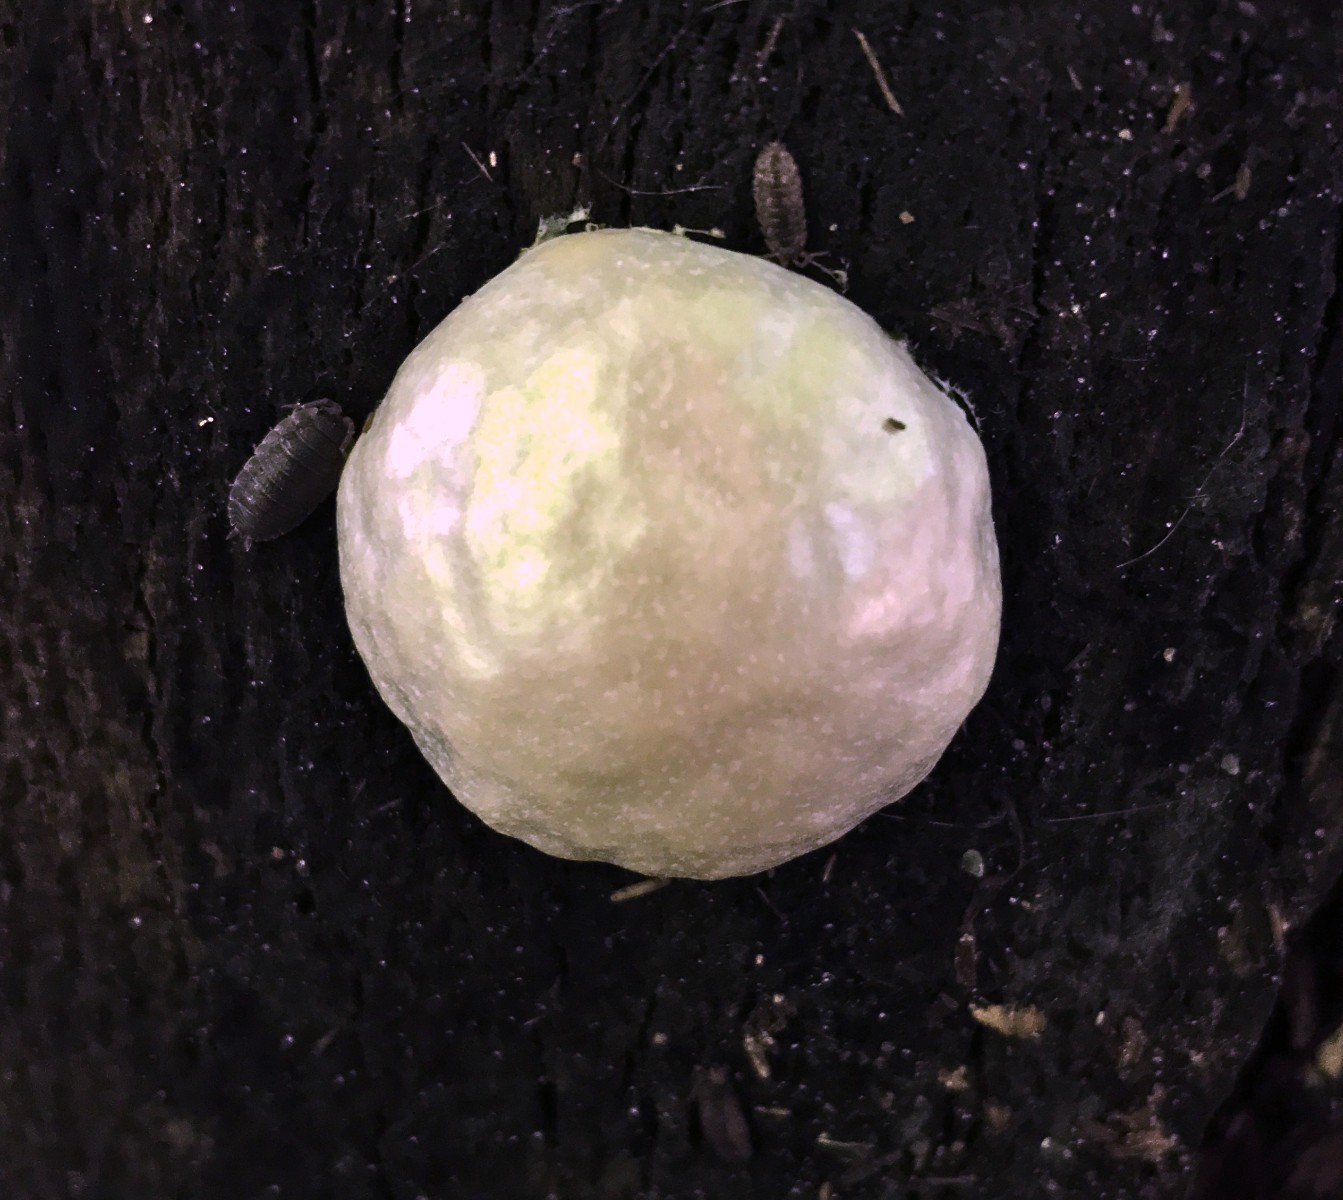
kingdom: Protozoa
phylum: Mycetozoa
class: Myxomycetes
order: Cribrariales
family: Tubiferaceae
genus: Reticularia
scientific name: Reticularia lycoperdon
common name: skinnende støvpude
